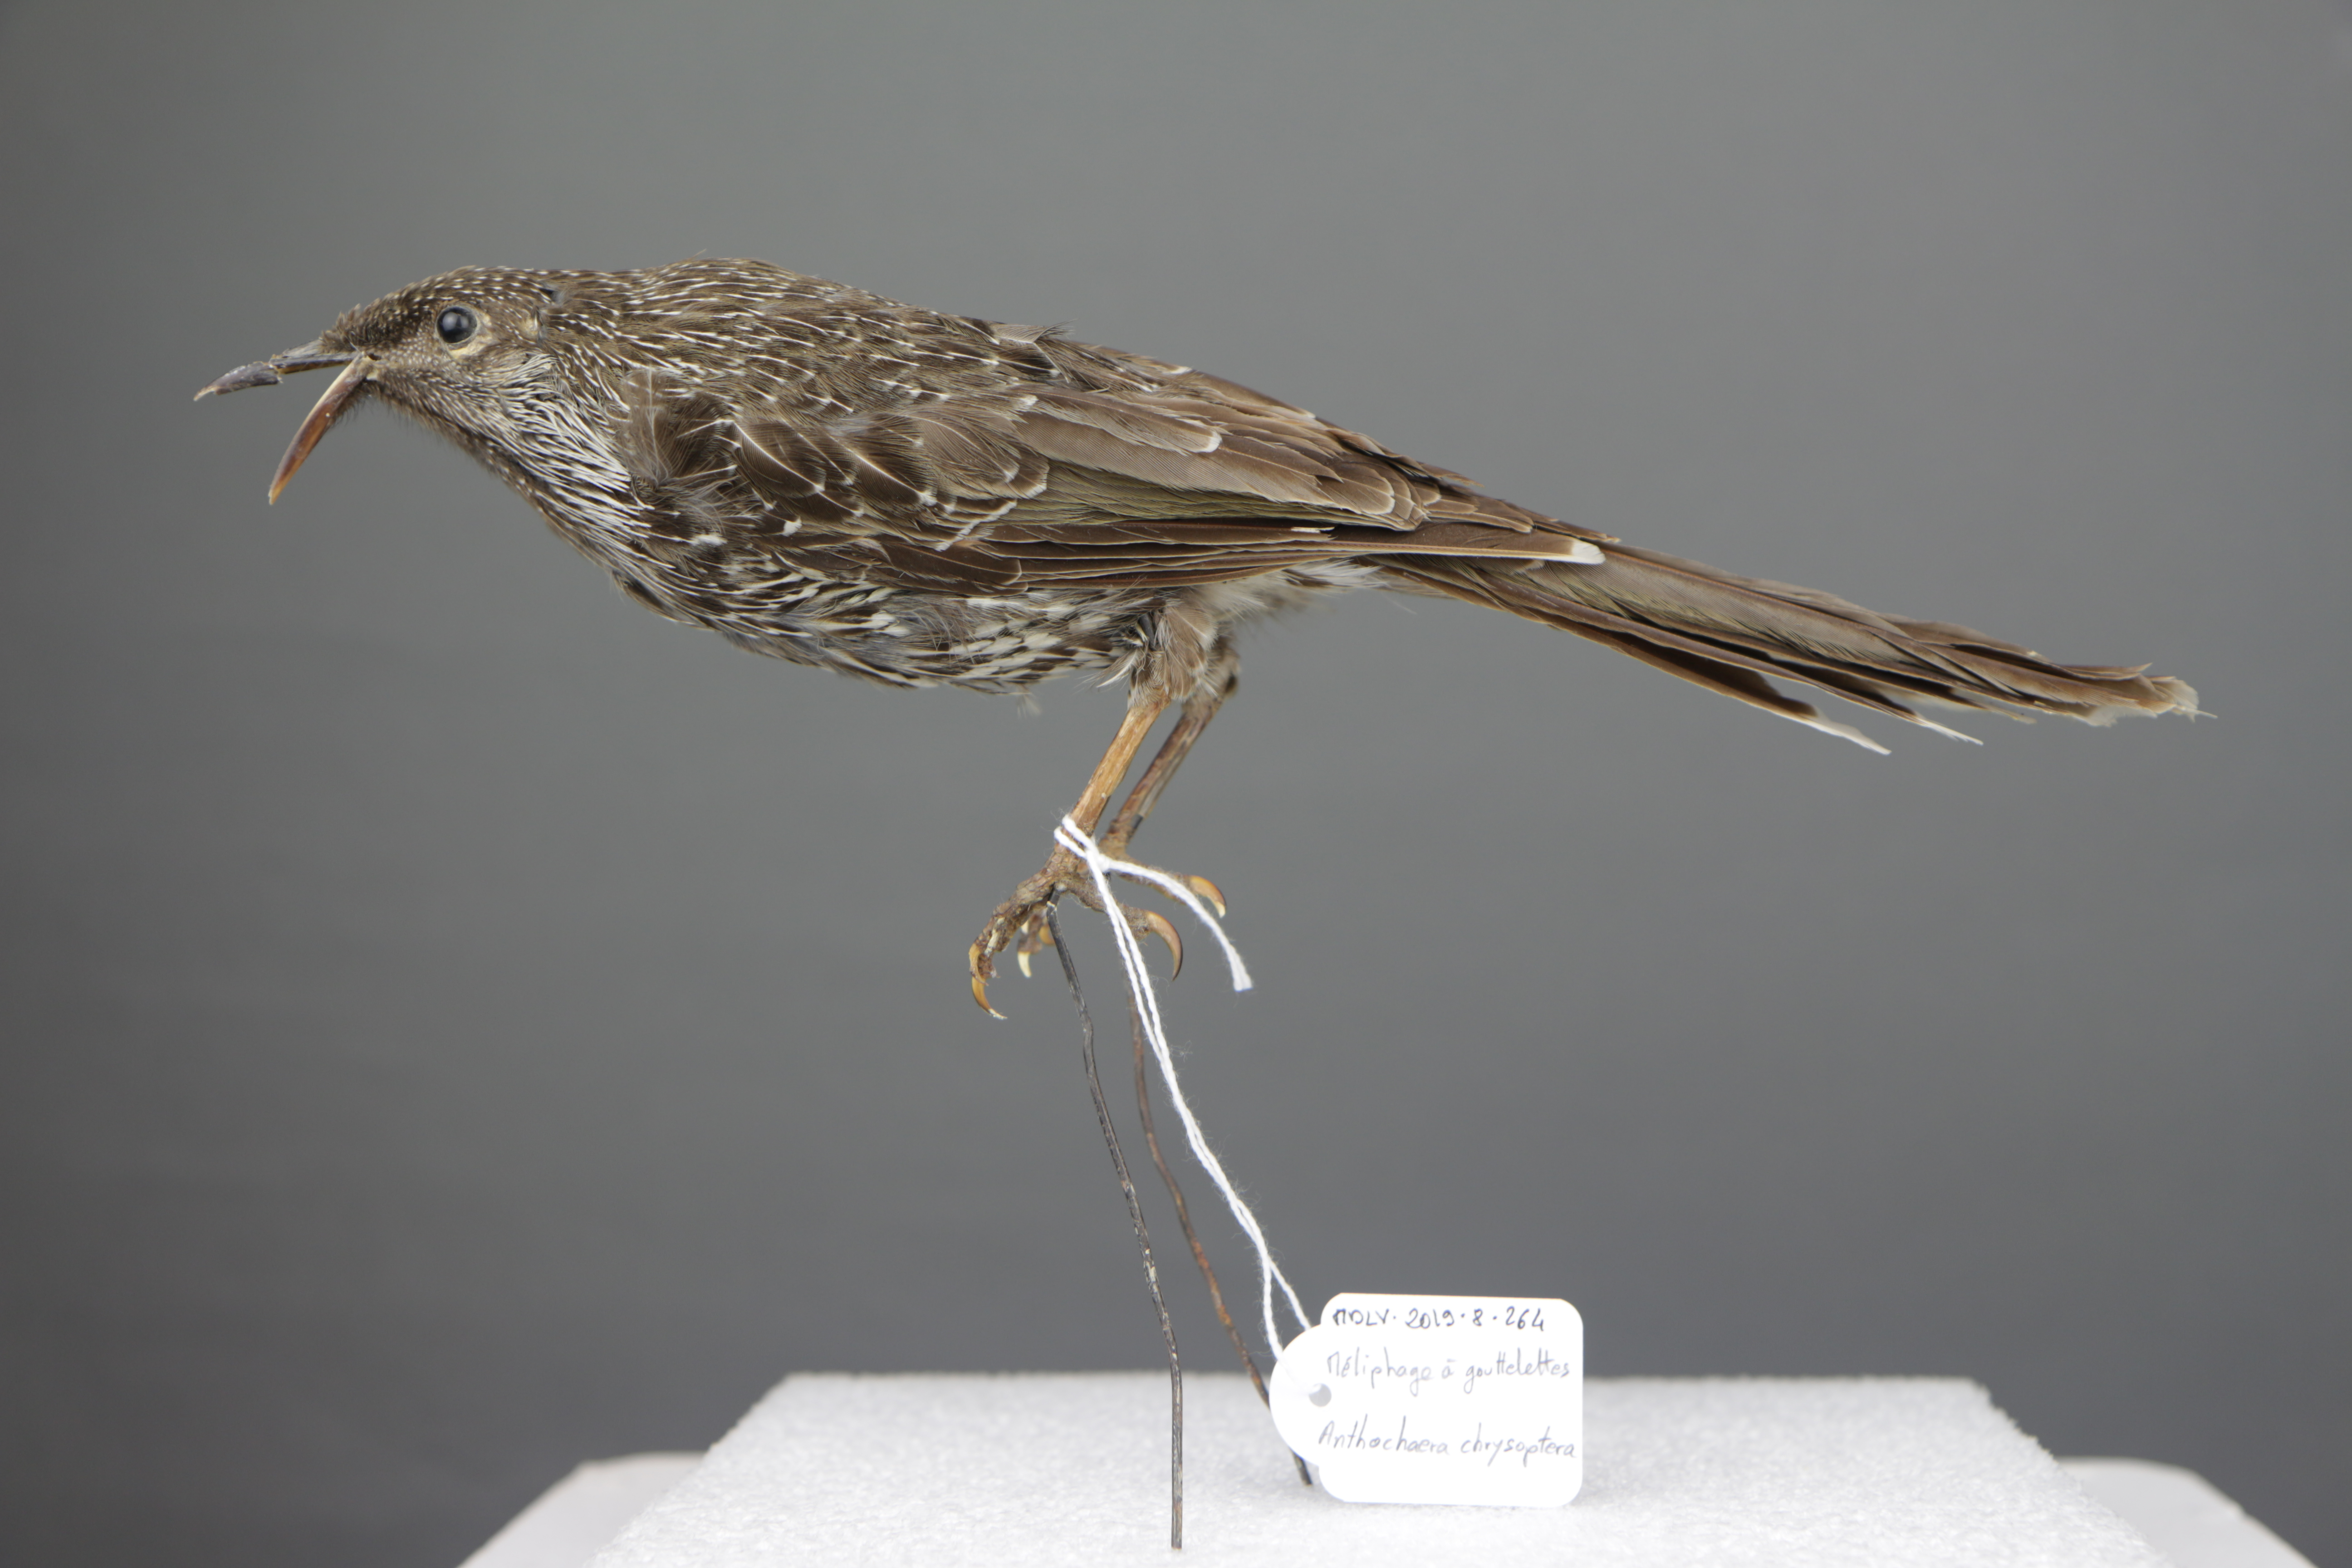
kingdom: Animalia
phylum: Chordata
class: Aves
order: Passeriformes
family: Meliphagidae
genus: Anthochaera
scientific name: Anthochaera chrysoptera
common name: Little wattlebird
